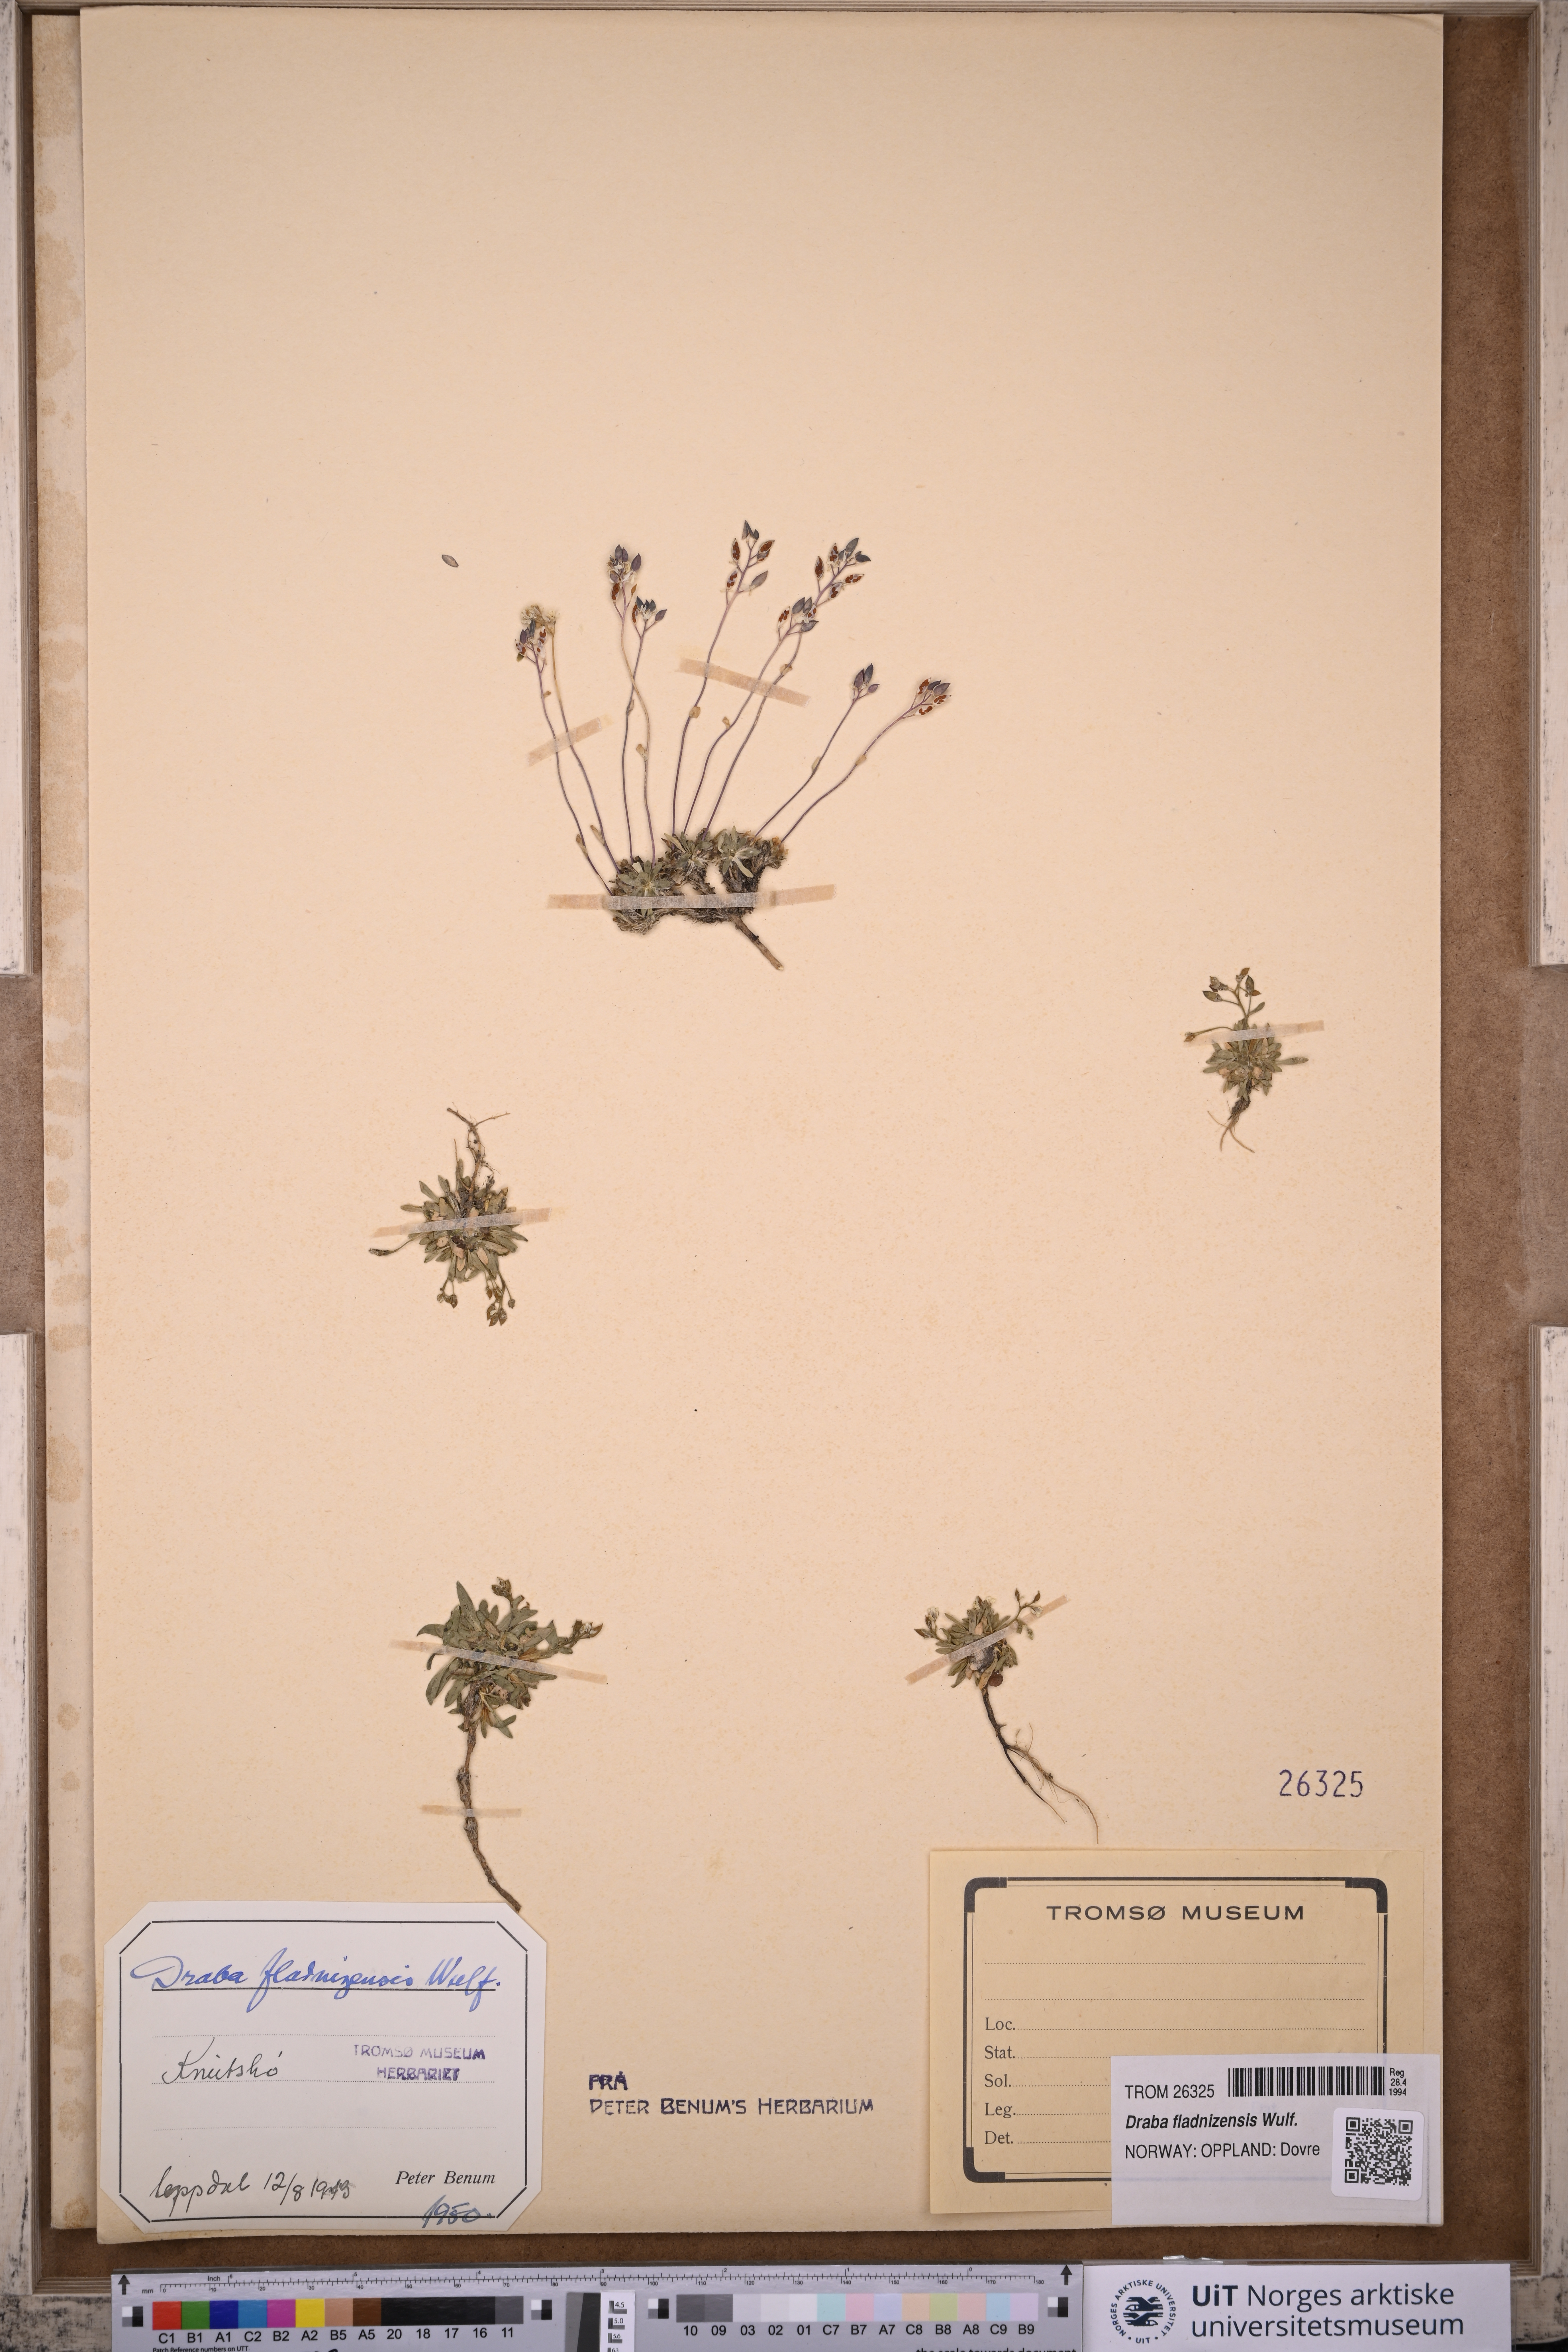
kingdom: Plantae
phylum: Tracheophyta
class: Magnoliopsida
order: Brassicales
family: Brassicaceae
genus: Draba
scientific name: Draba fladnizensis
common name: Austrian draba
